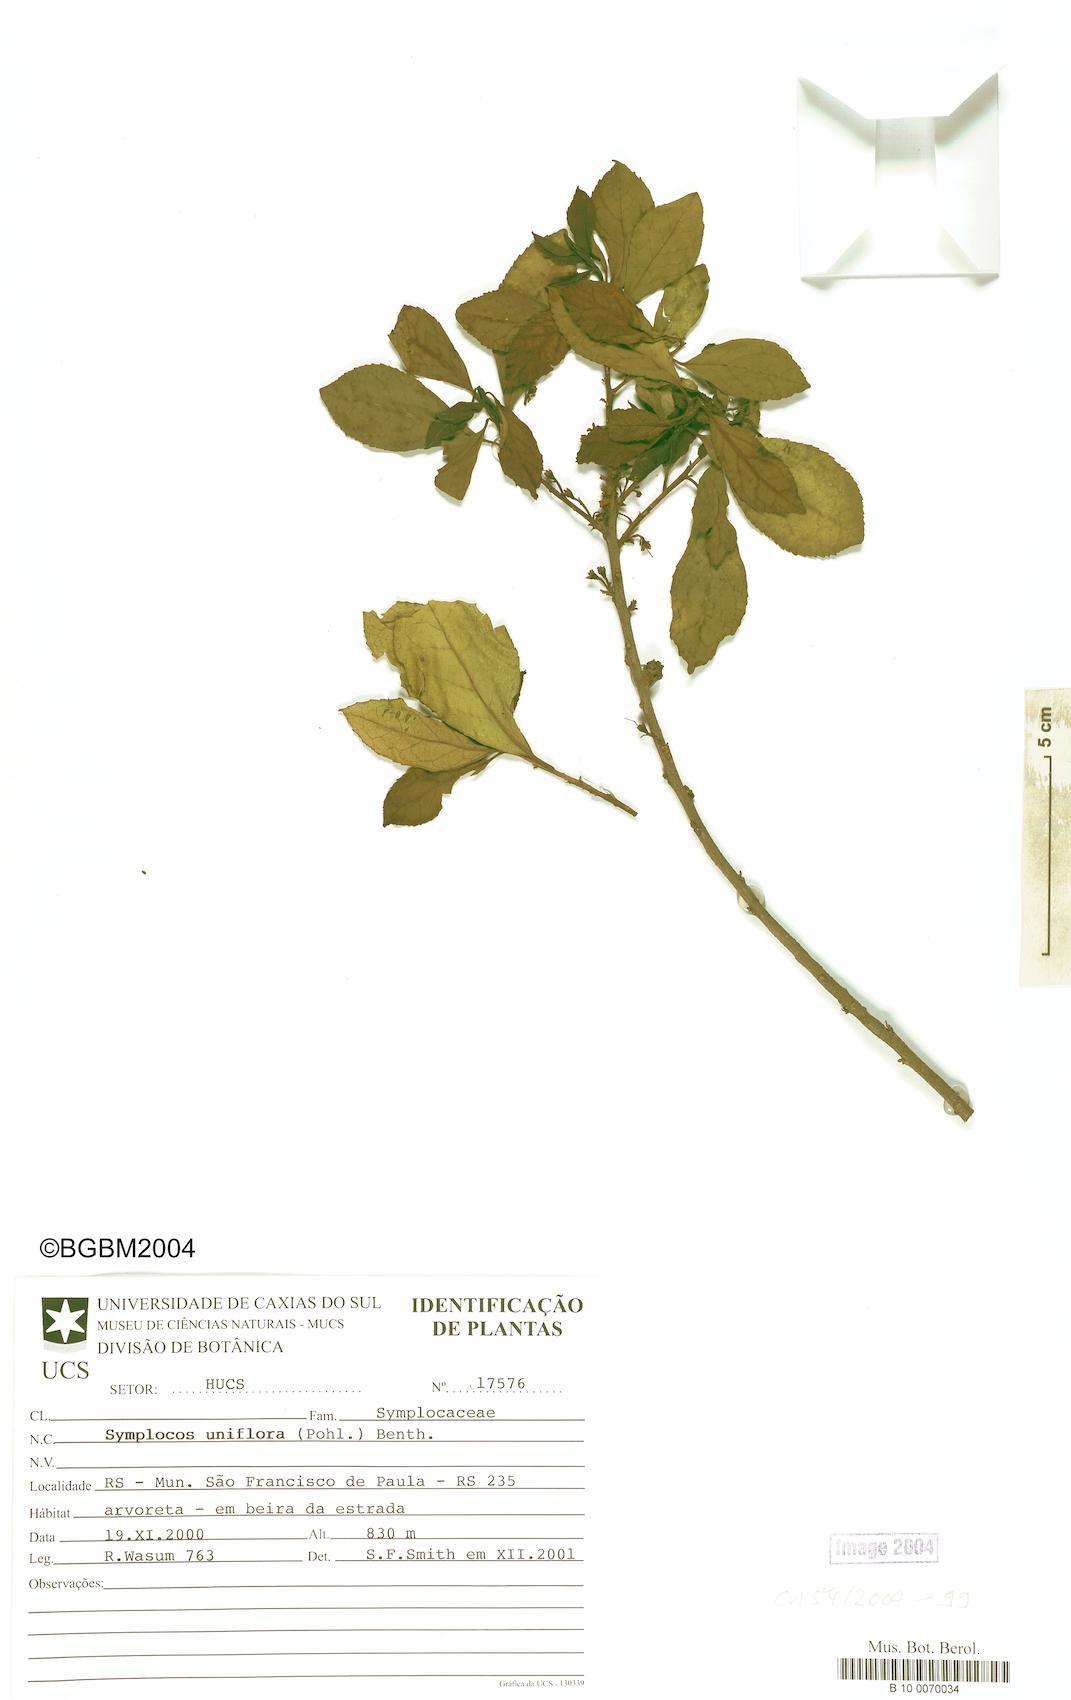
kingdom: Plantae
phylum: Tracheophyta
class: Magnoliopsida
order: Ericales
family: Symplocaceae
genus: Symplocos
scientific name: Symplocos uniflora
